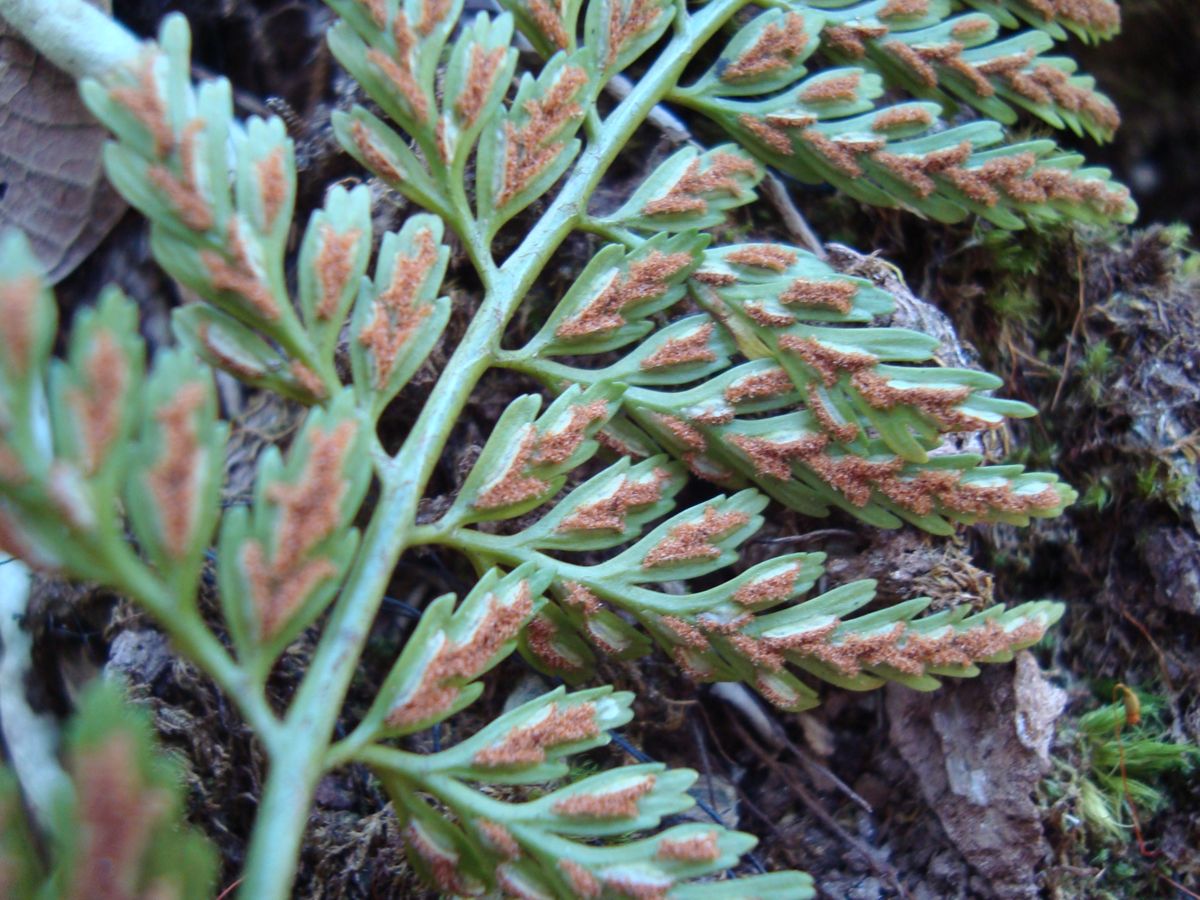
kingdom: Plantae
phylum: Tracheophyta
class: Polypodiopsida
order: Polypodiales
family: Aspleniaceae
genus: Asplenium
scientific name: Asplenium cuspidatum
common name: Eared spleenwort
